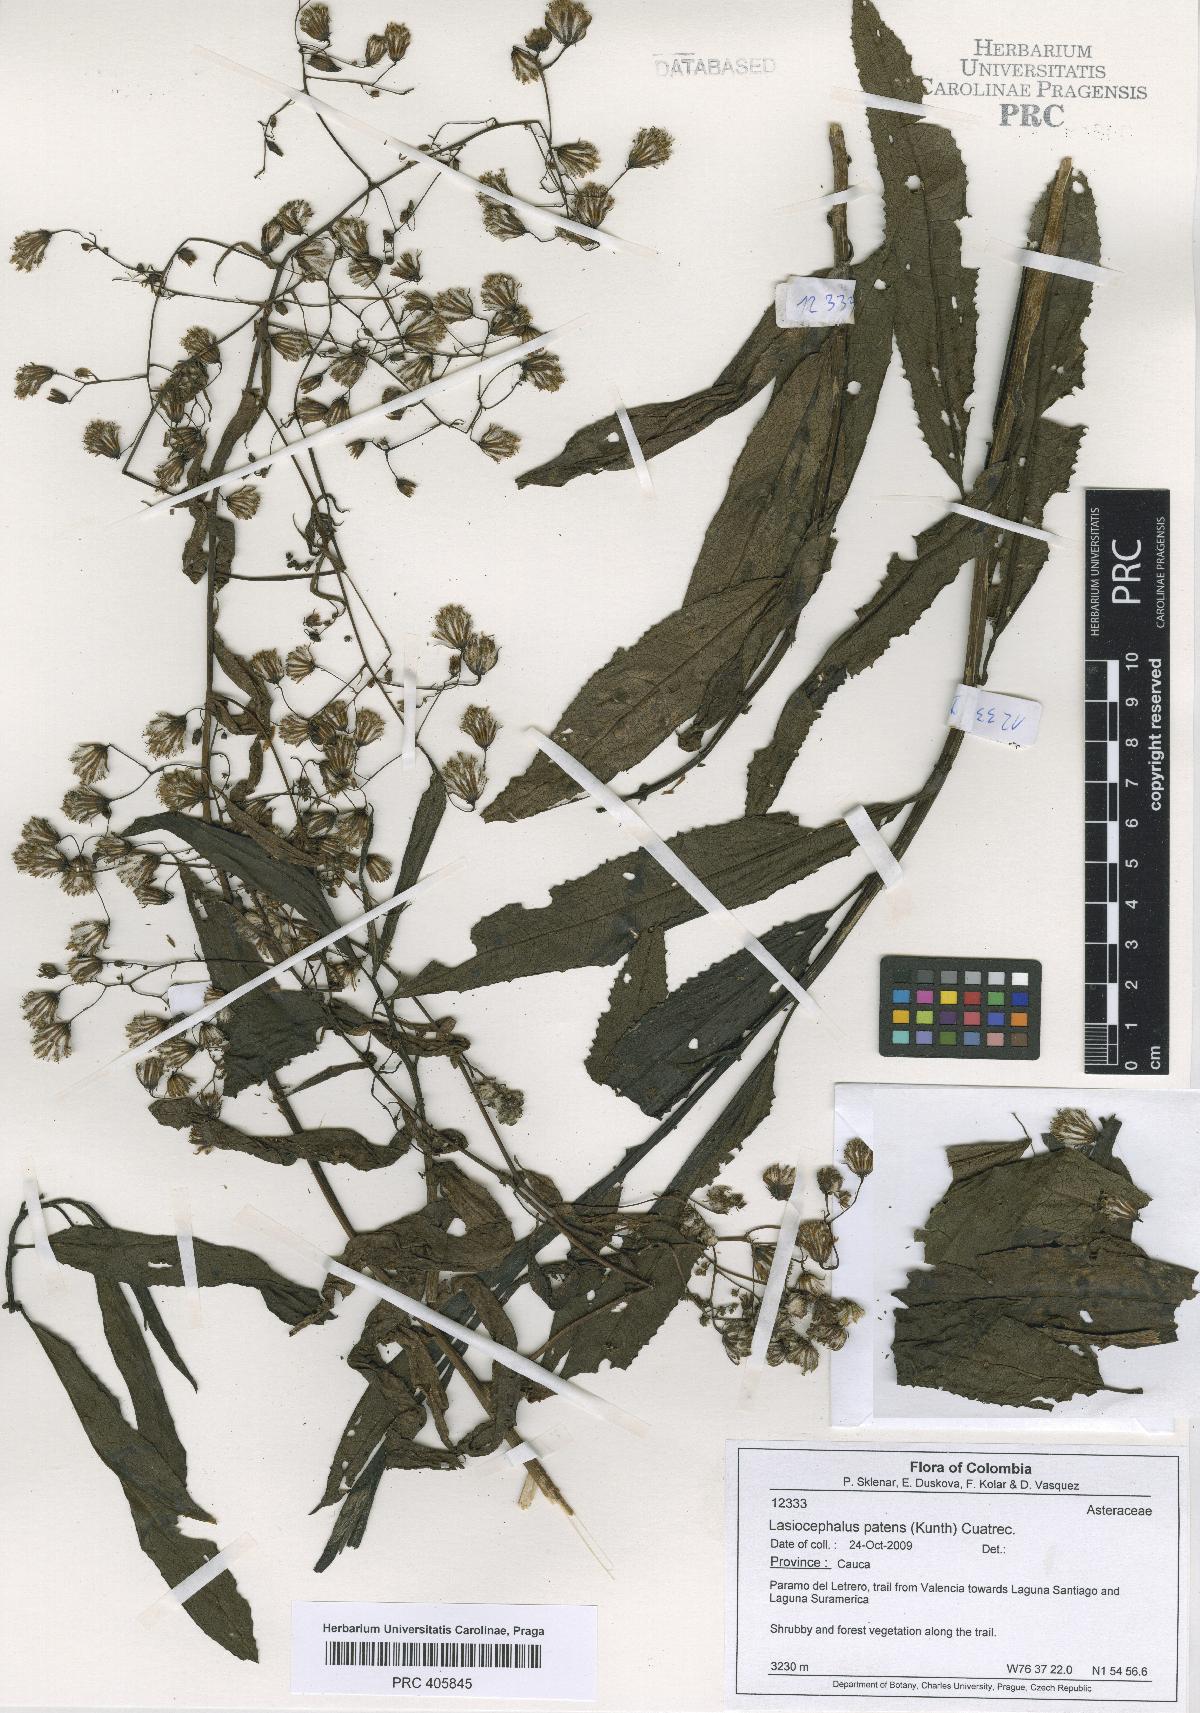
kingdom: Plantae
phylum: Tracheophyta
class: Magnoliopsida
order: Asterales
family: Asteraceae
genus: Aetheolaena
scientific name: Aetheolaena patens
